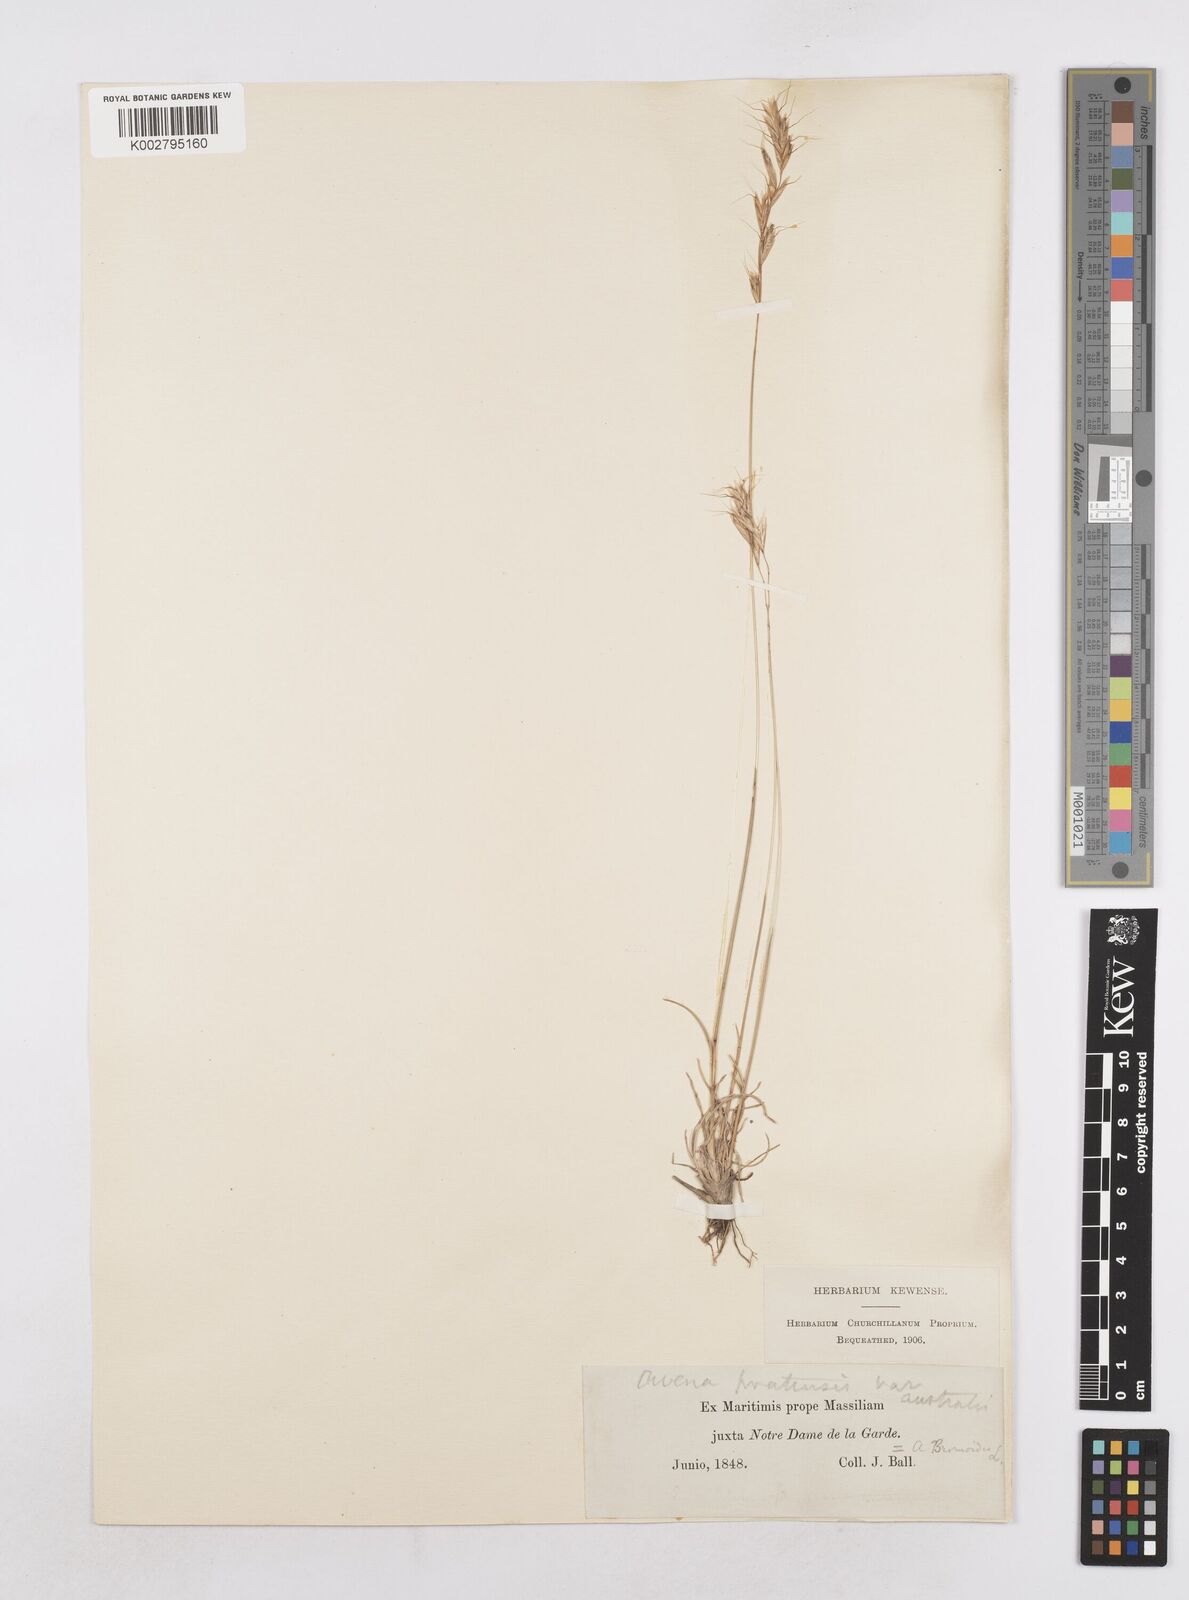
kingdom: Plantae
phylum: Tracheophyta
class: Liliopsida
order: Poales
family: Poaceae
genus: Helictochloa
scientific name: Helictochloa pratensis
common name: Meadow oat grass
